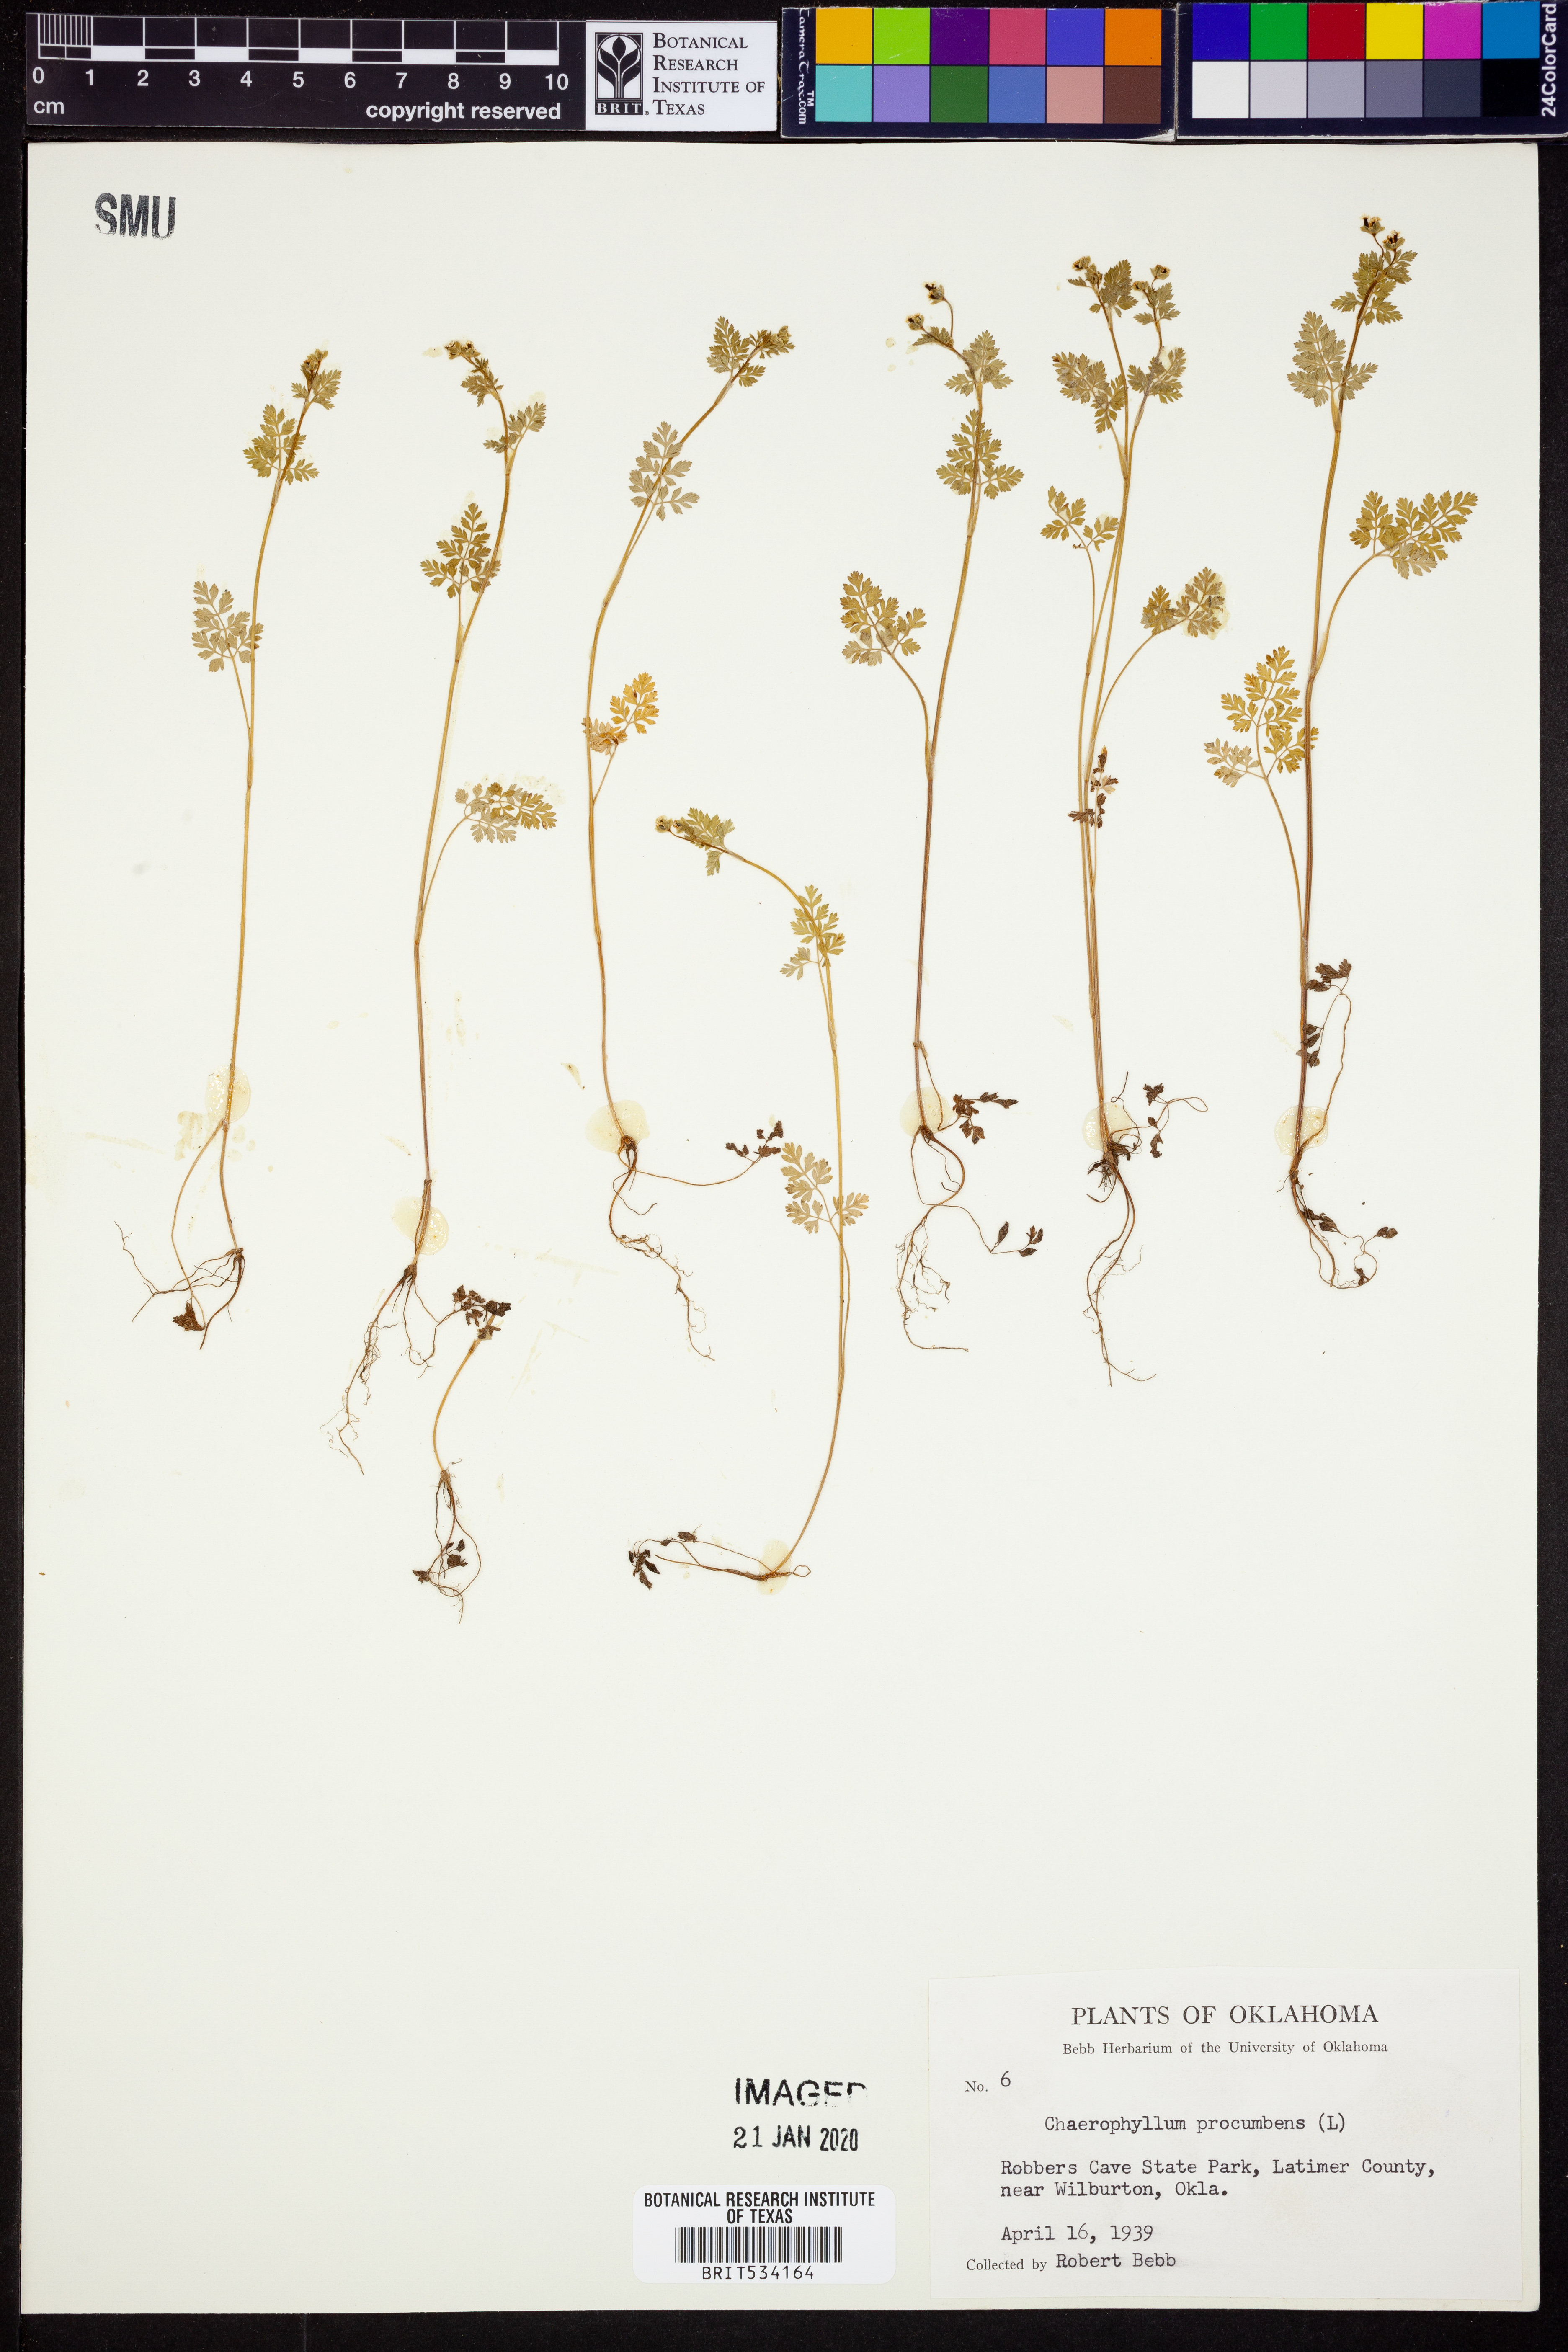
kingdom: Plantae
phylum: Tracheophyta
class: Magnoliopsida
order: Apiales
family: Apiaceae
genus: Chaerophyllum
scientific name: Chaerophyllum procumbens
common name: Spreading chervil
